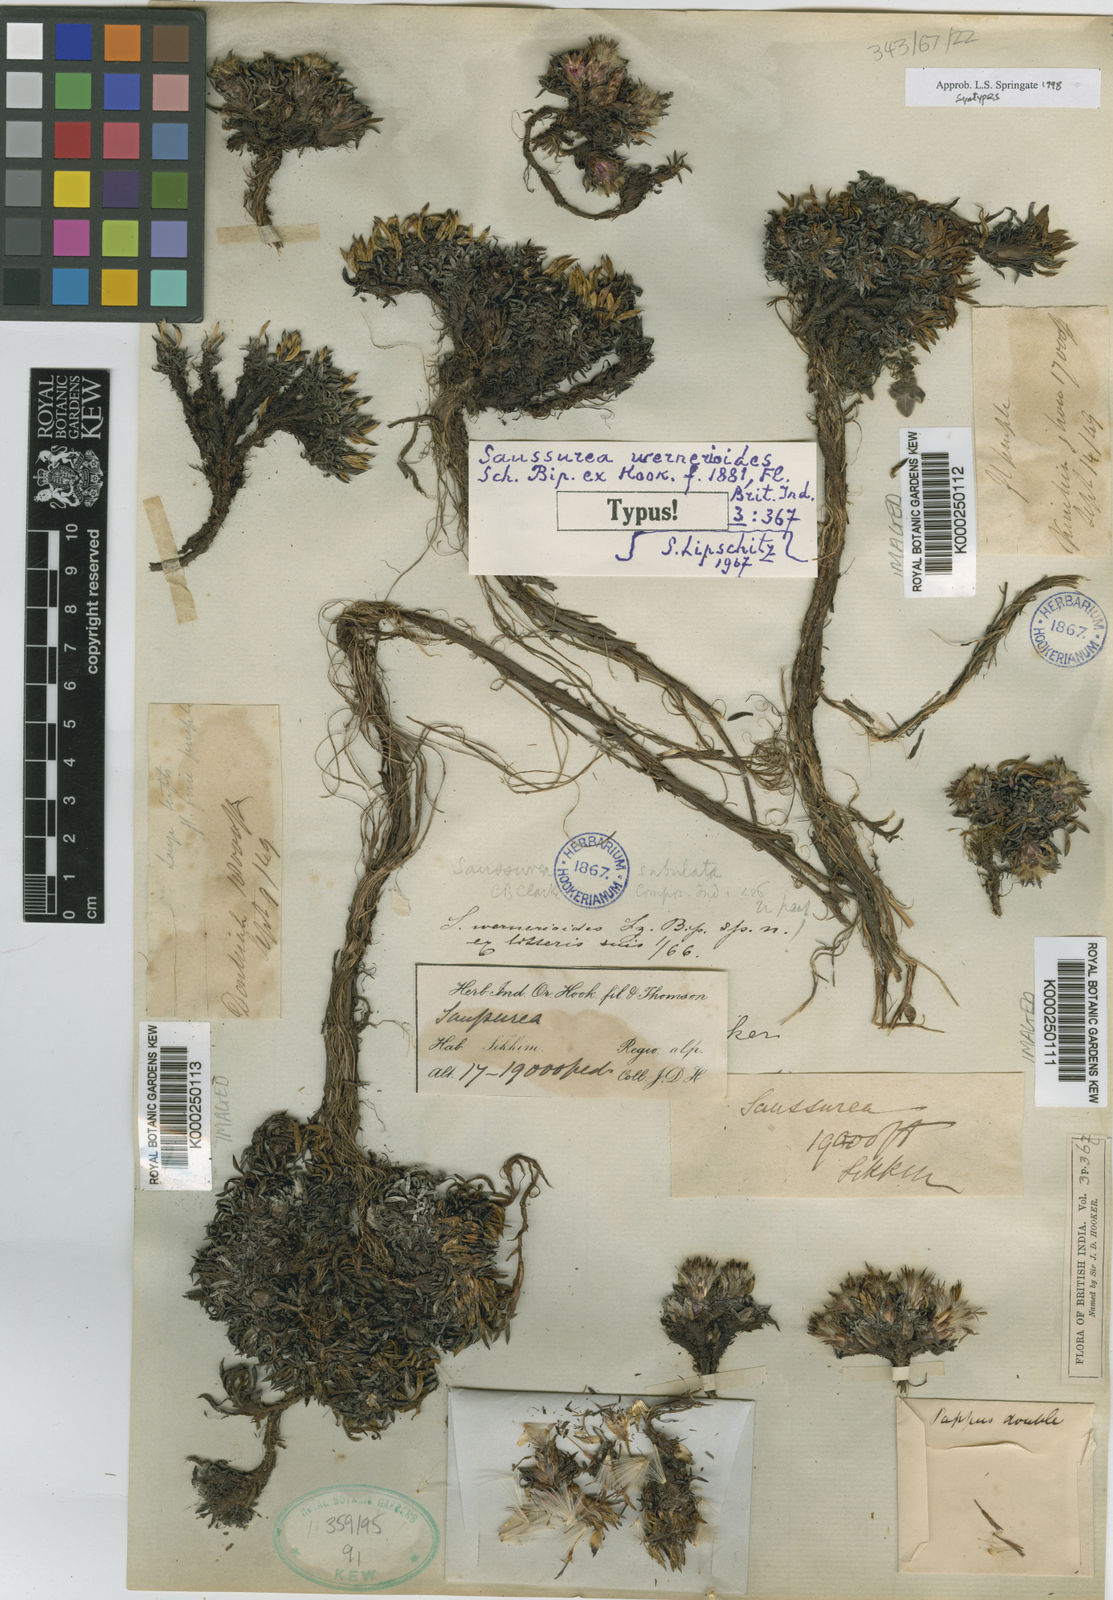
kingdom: Plantae
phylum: Tracheophyta
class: Magnoliopsida
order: Asterales
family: Asteraceae
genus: Saussurea
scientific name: Saussurea
